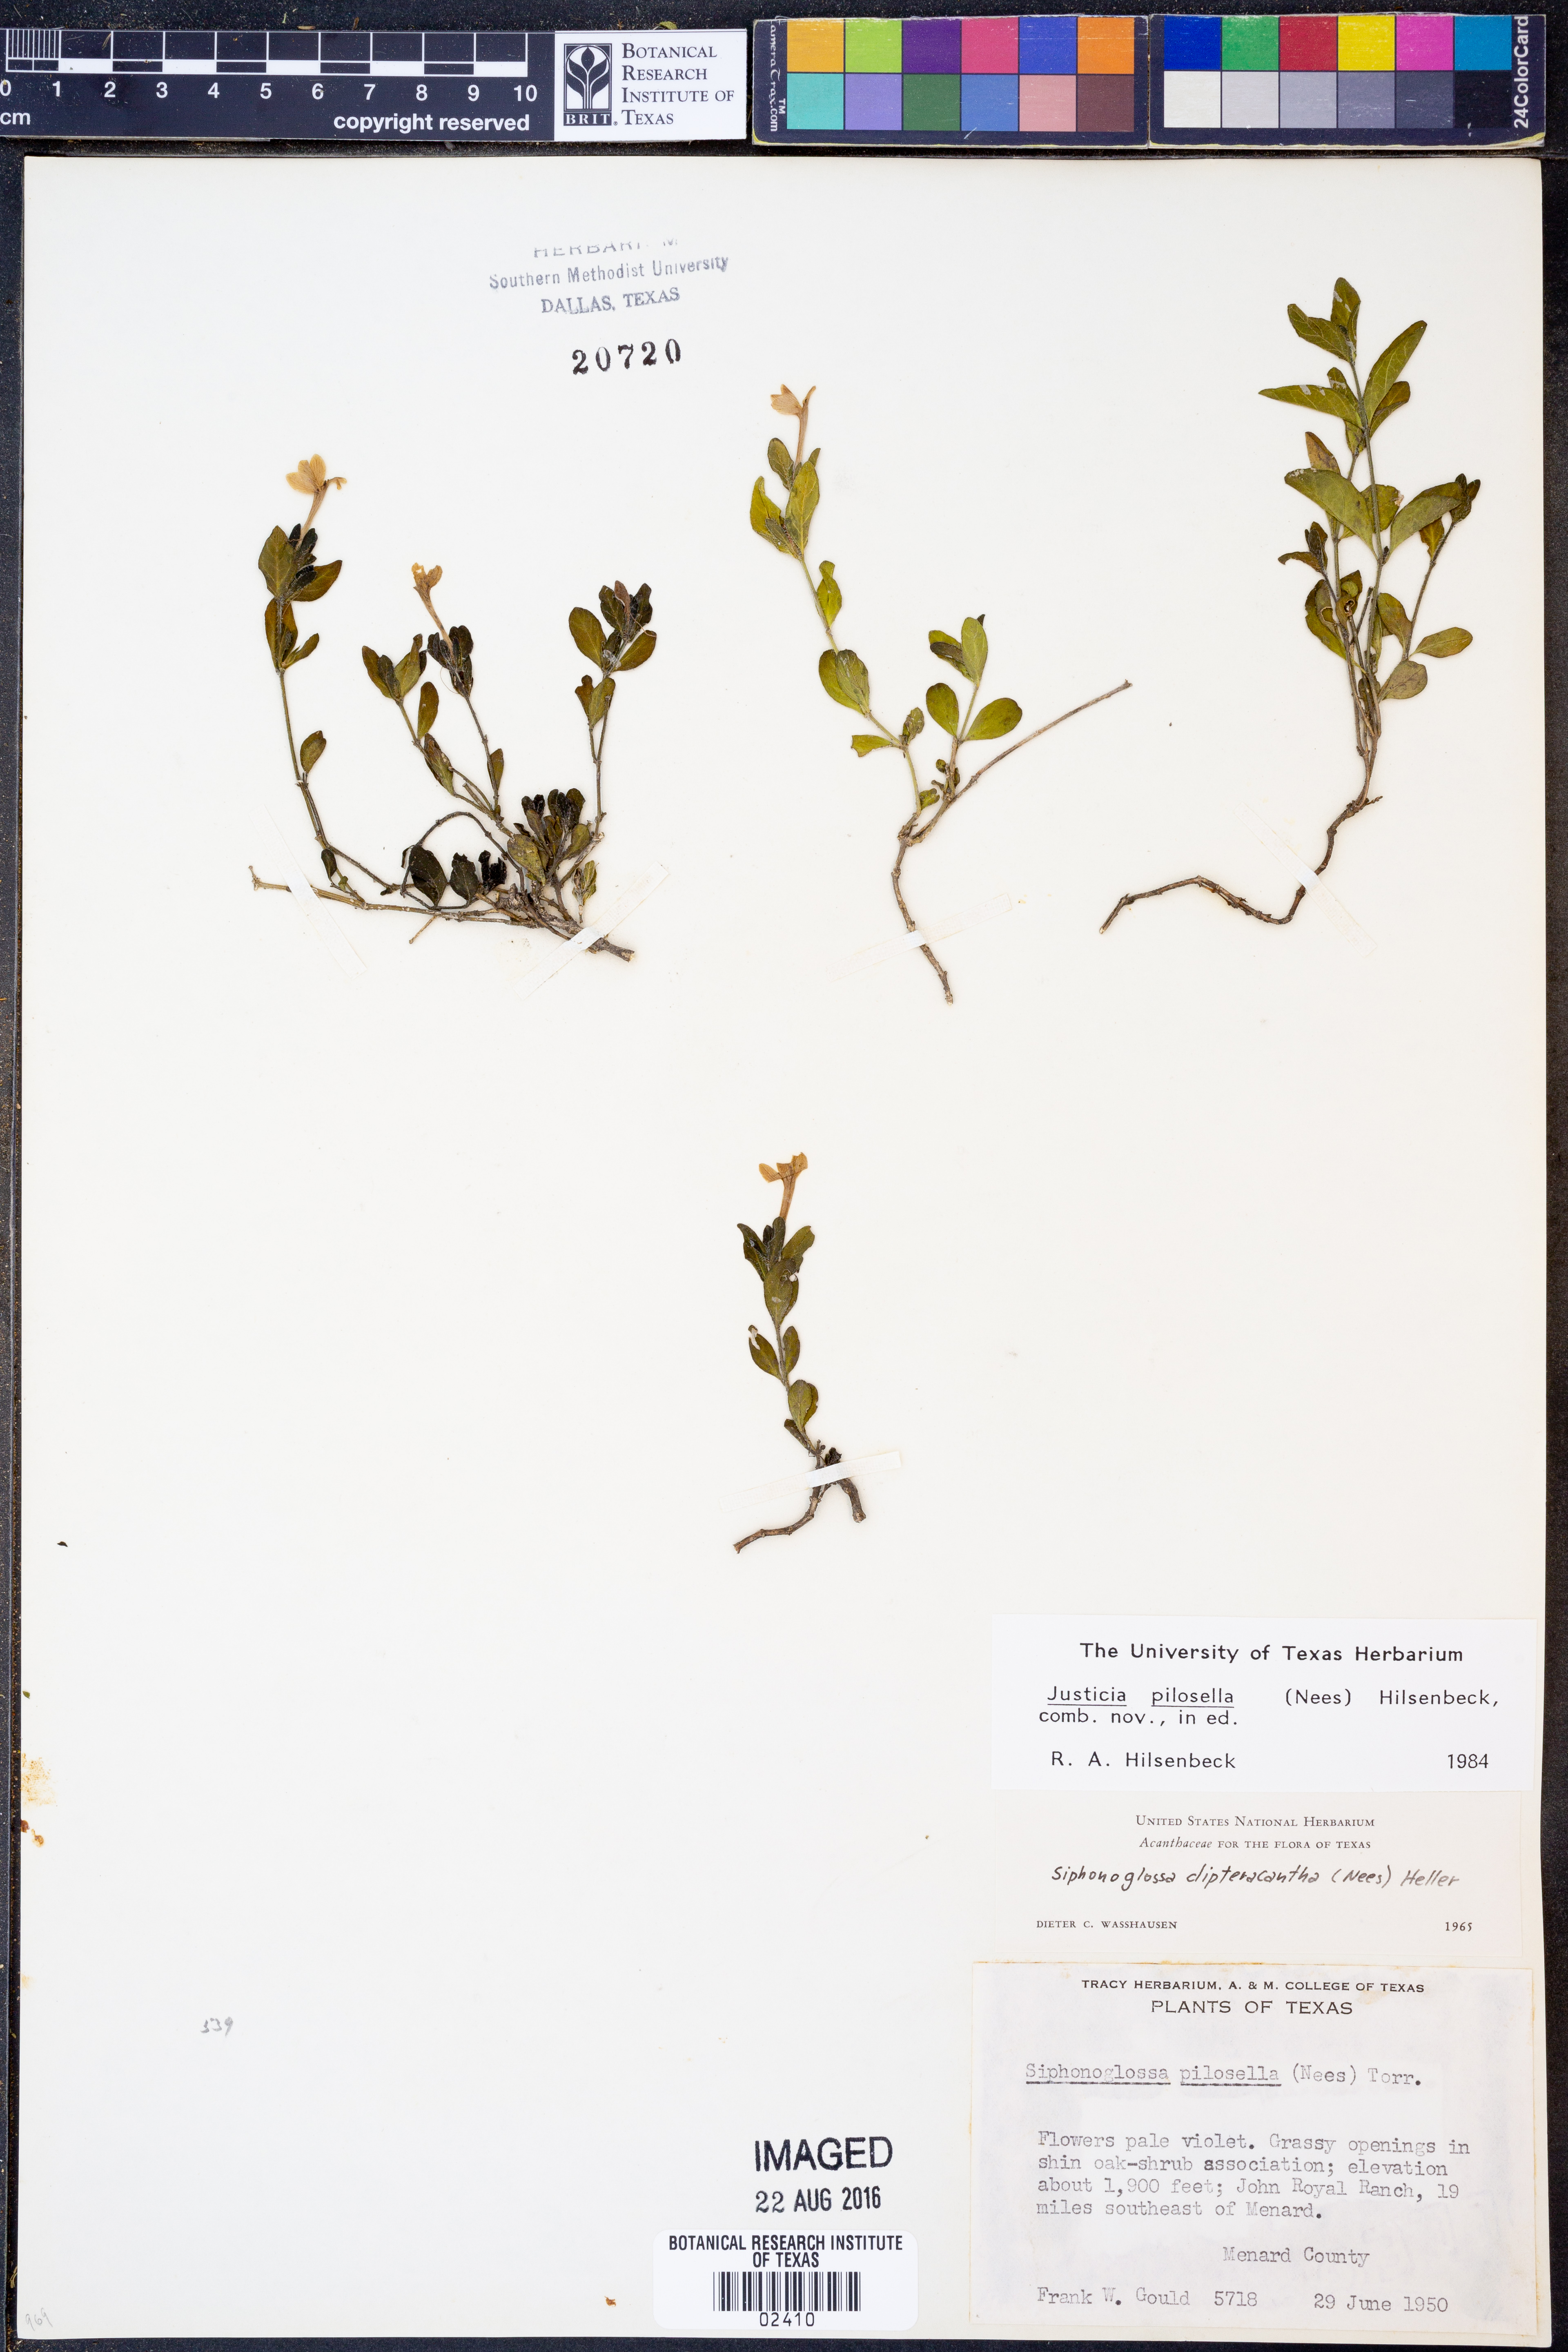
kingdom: Plantae
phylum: Tracheophyta
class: Magnoliopsida
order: Lamiales
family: Acanthaceae
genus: Justicia
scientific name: Justicia pilosella
